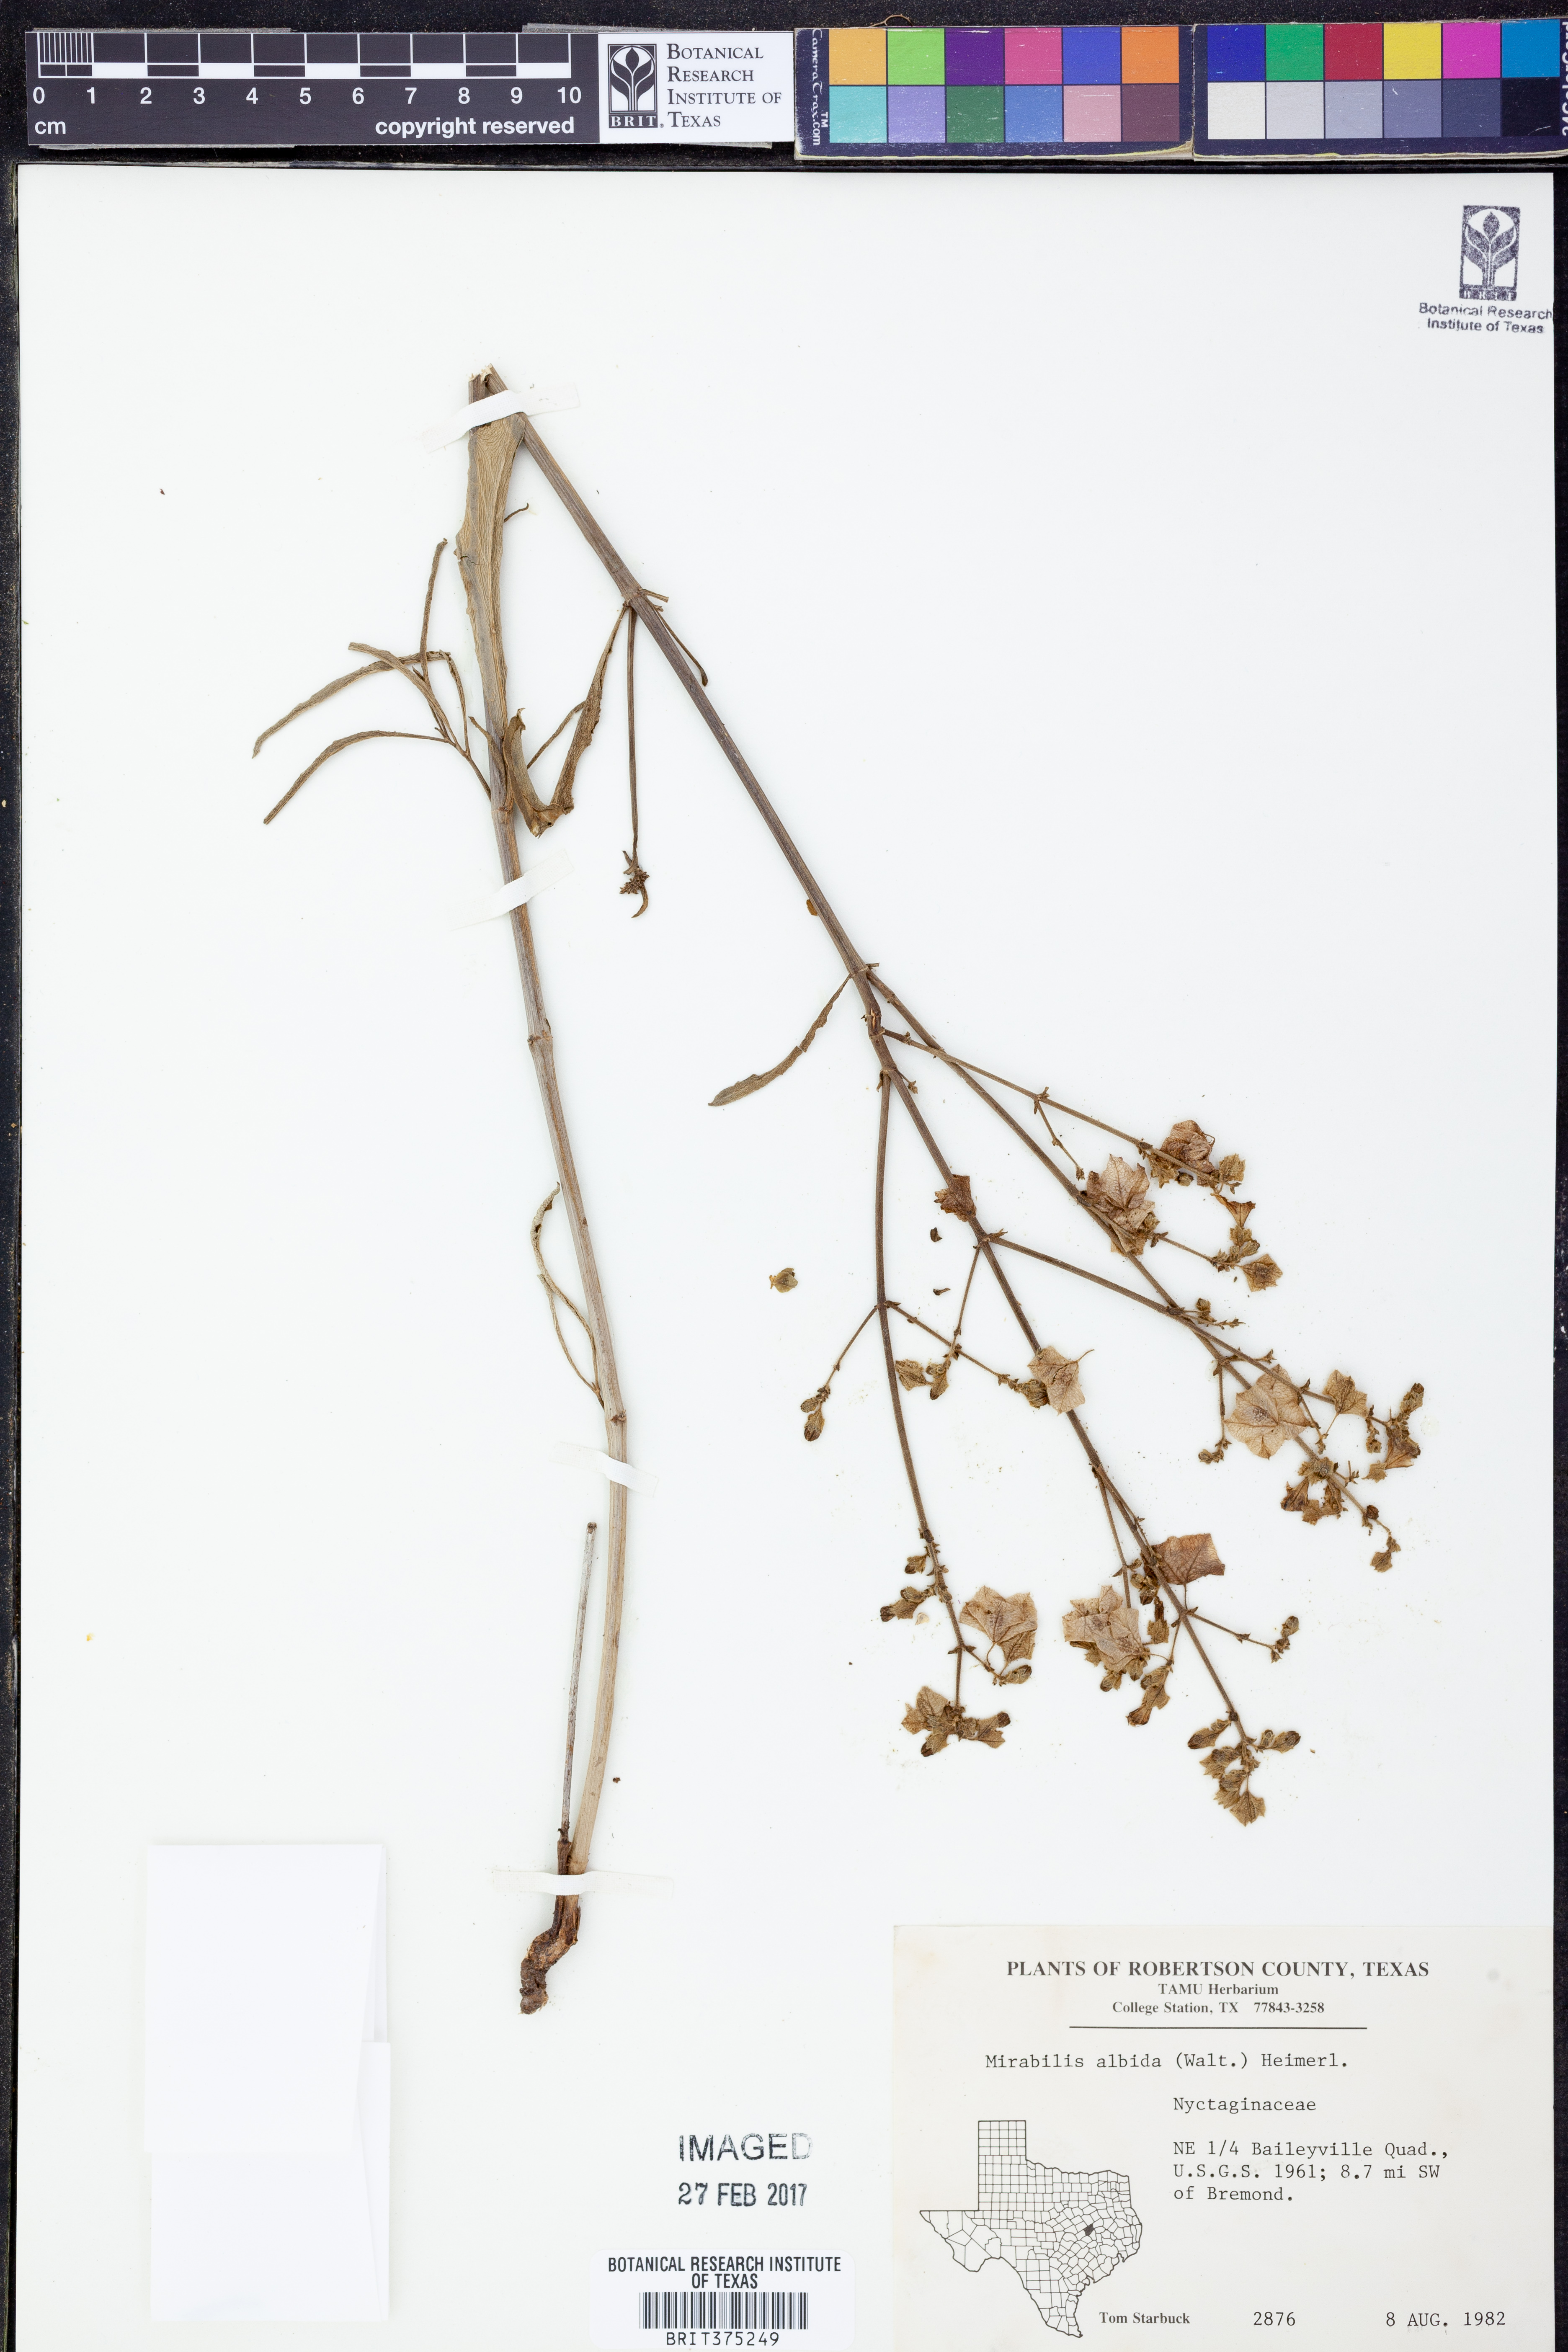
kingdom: Plantae
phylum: Tracheophyta
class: Magnoliopsida
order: Caryophyllales
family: Nyctaginaceae
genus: Mirabilis
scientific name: Mirabilis albida
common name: Hairy four-o'clock
